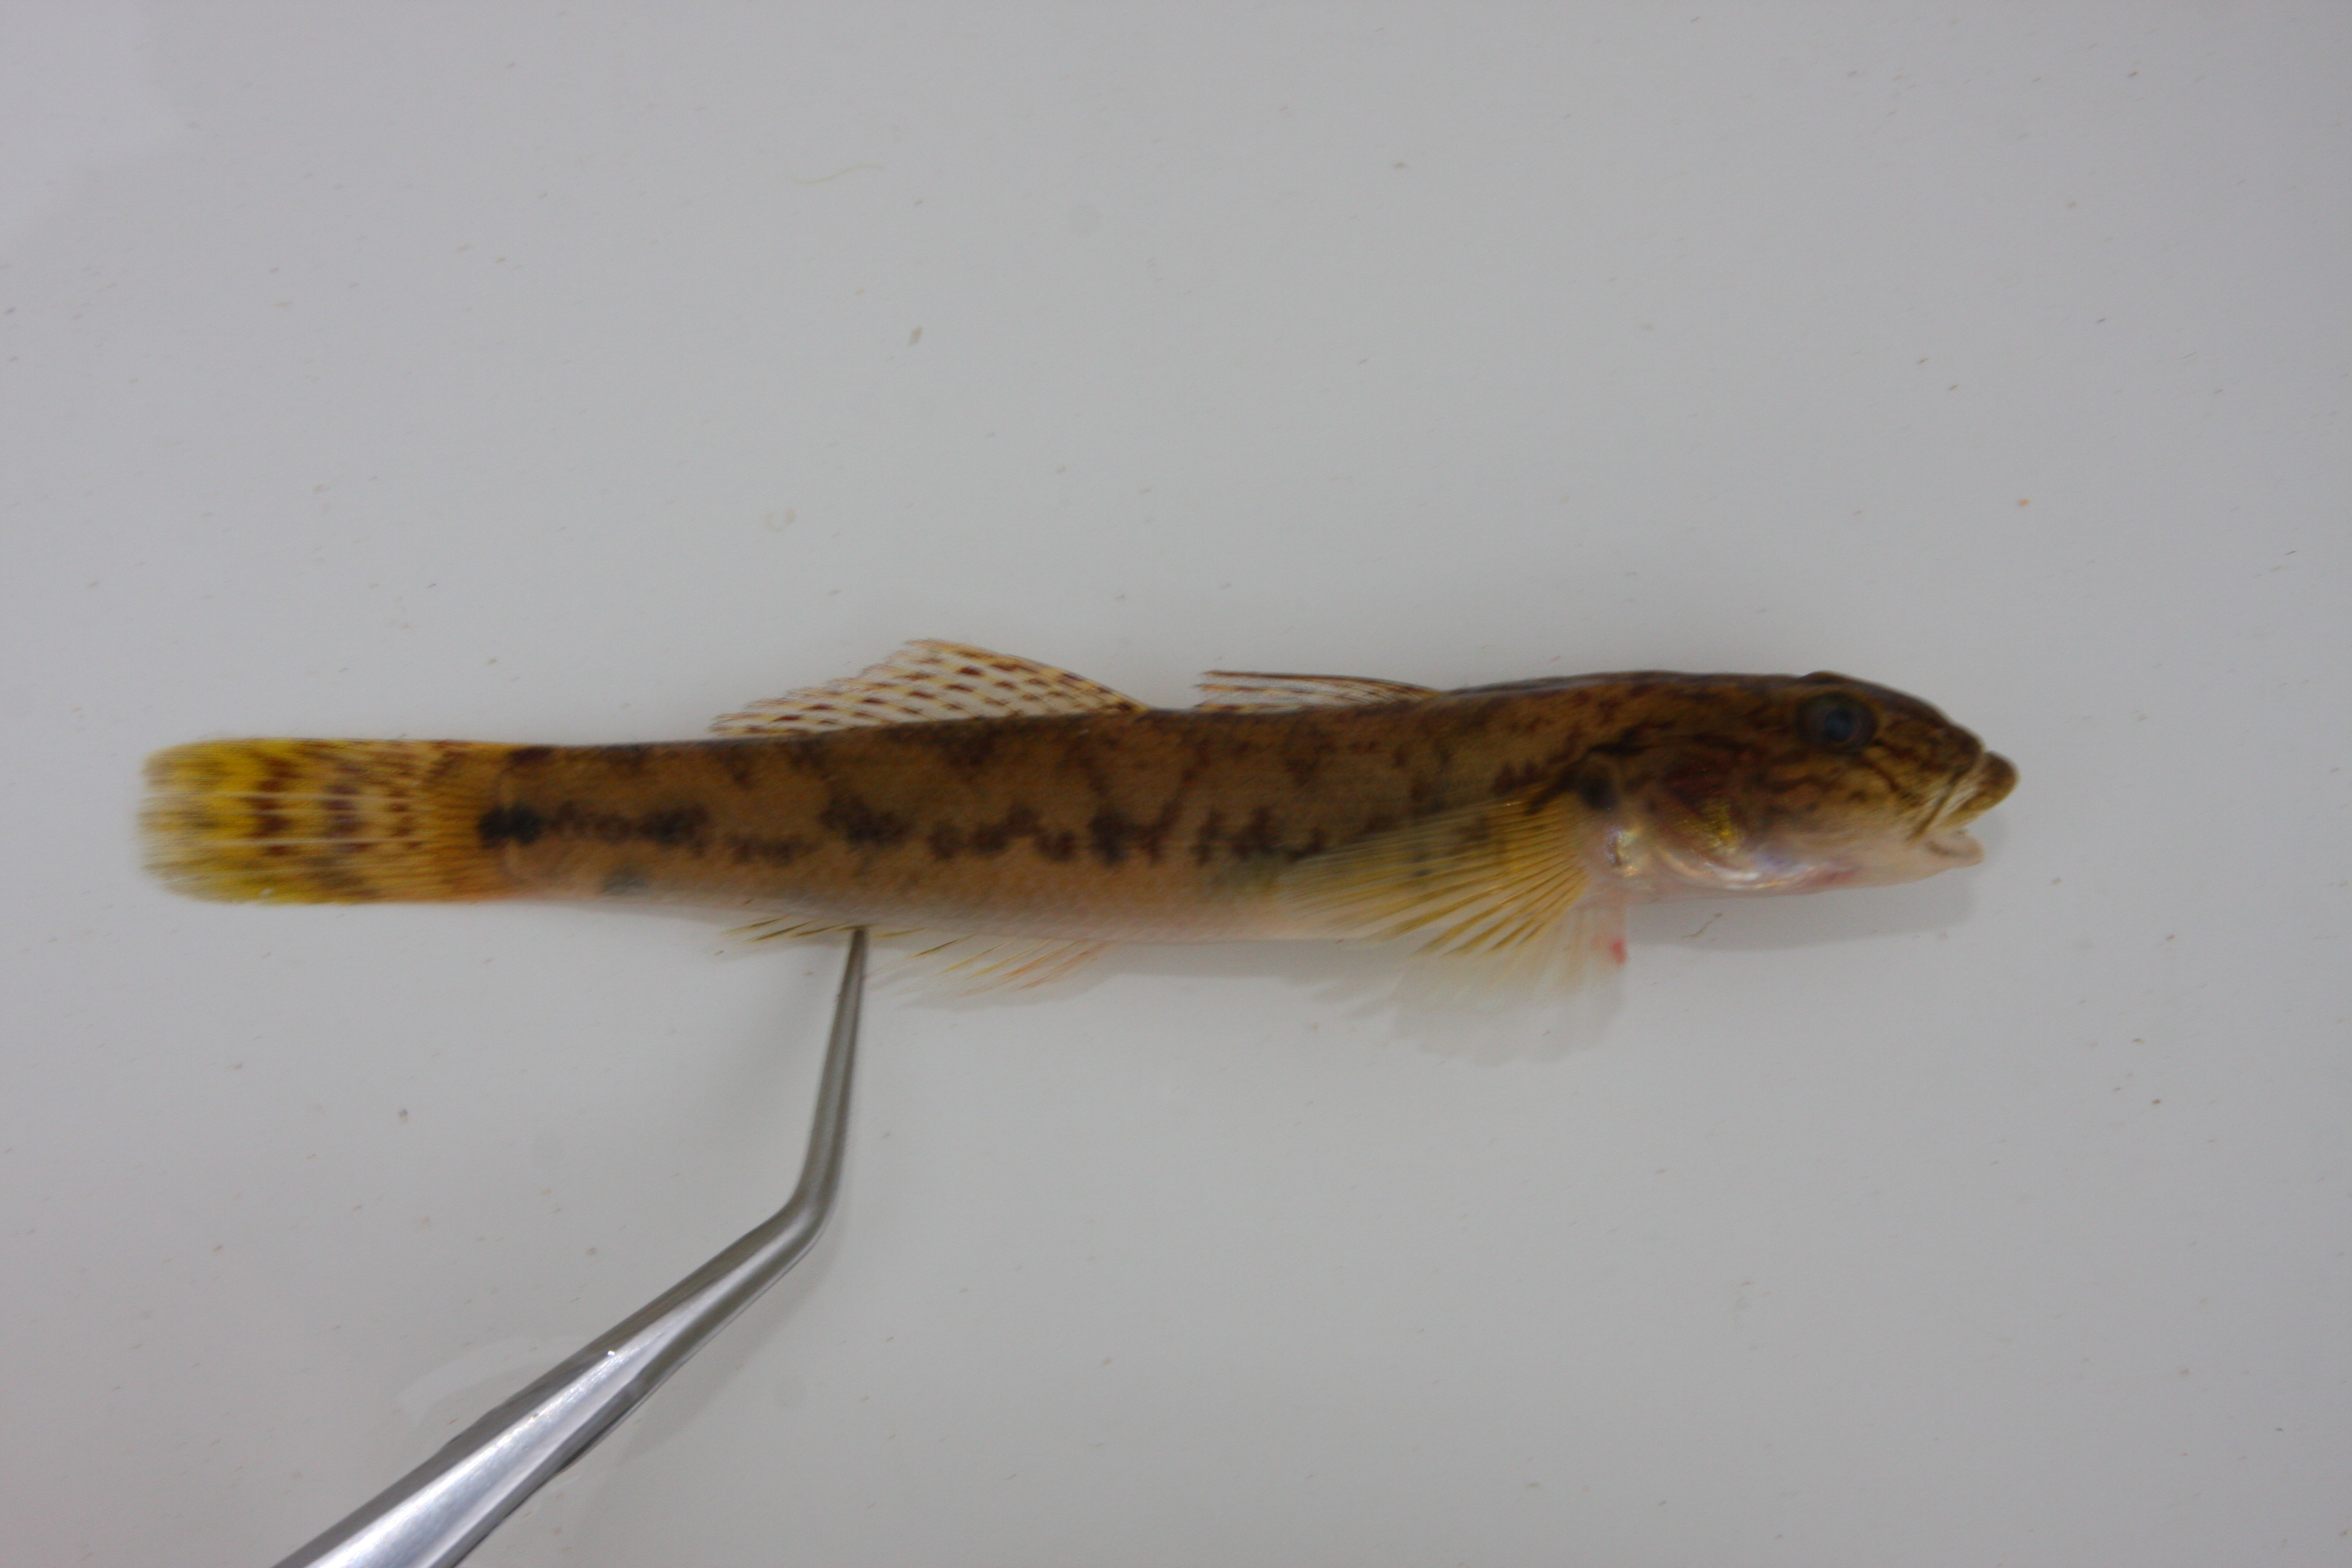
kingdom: Animalia
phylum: Chordata
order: Perciformes
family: Gobiidae
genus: Awaous
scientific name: Awaous aeneofuscus
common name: Freshwater goby
